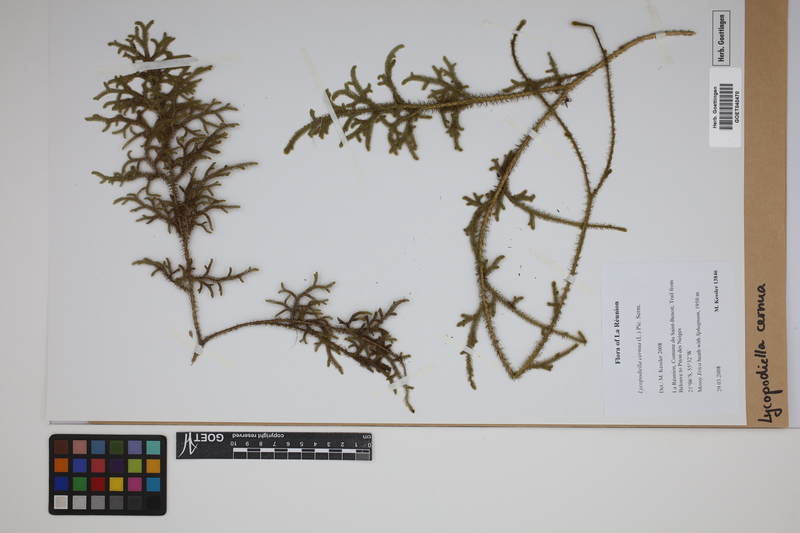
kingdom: Plantae
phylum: Tracheophyta
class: Lycopodiopsida
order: Lycopodiales
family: Lycopodiaceae
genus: Palhinhaea
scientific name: Palhinhaea cernua
